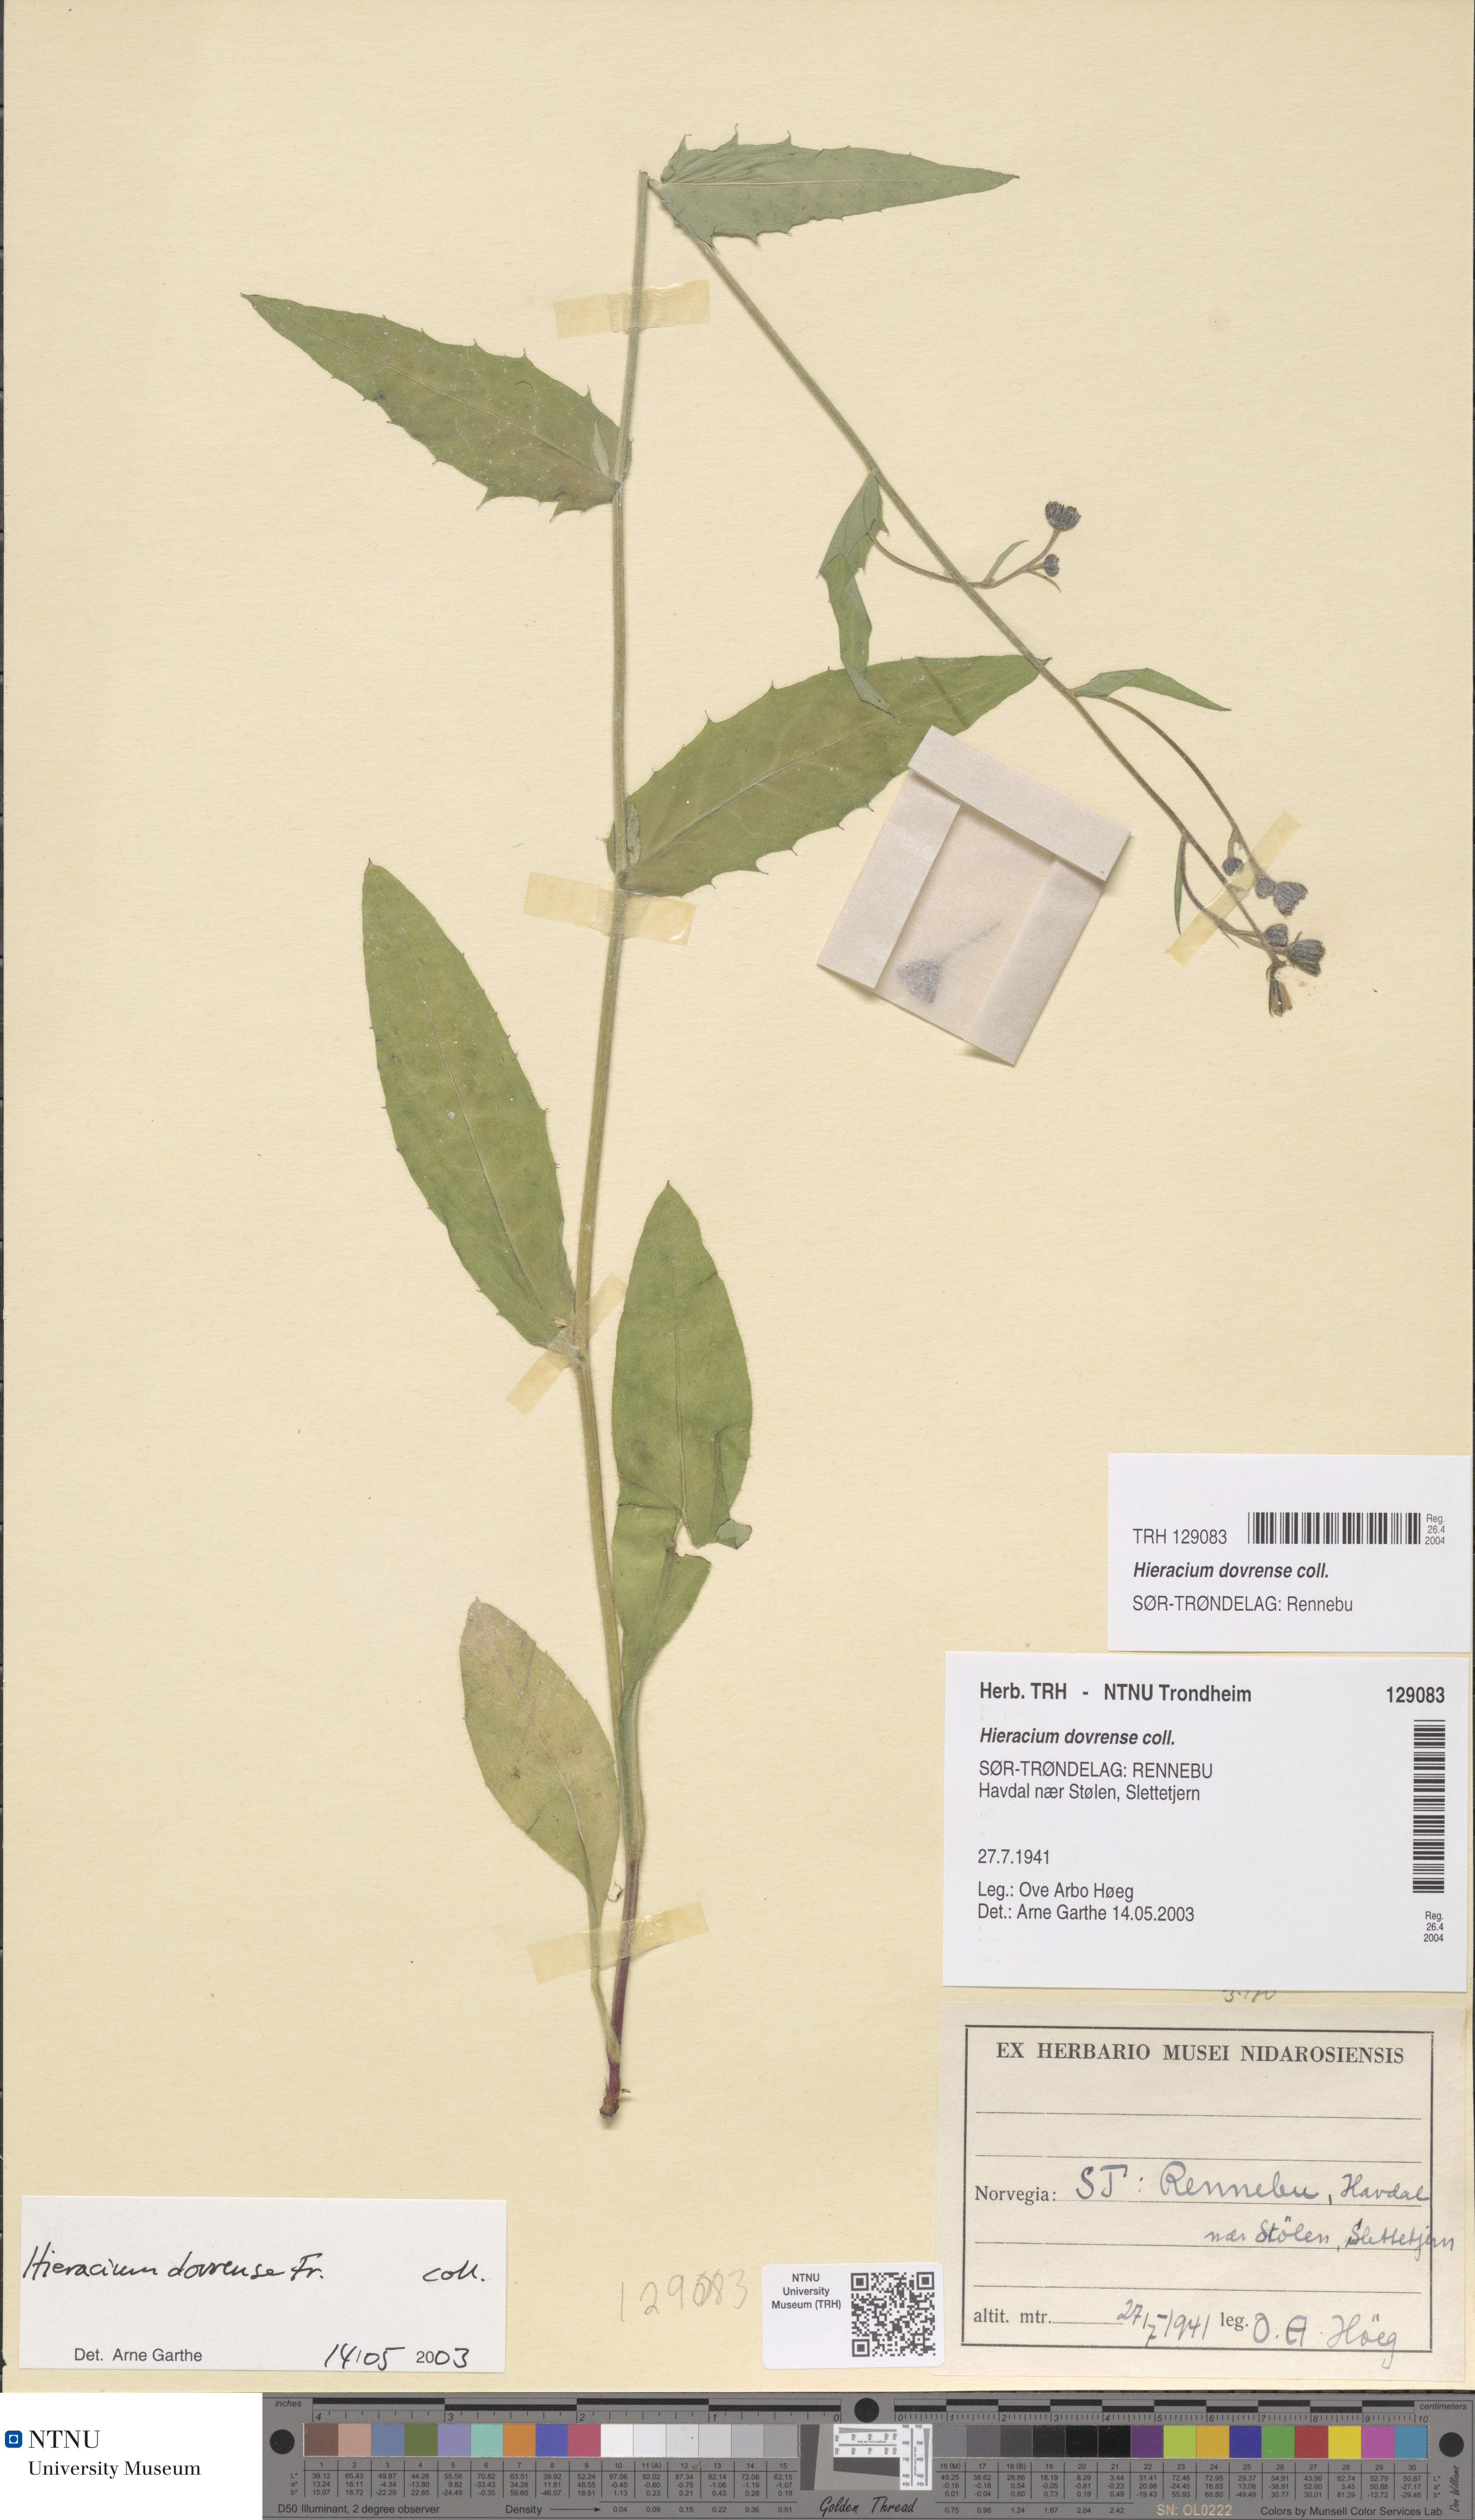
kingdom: Plantae
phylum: Tracheophyta
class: Magnoliopsida
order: Asterales
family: Asteraceae
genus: Hieracium
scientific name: Hieracium dovrense
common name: Dovre hawkweed
